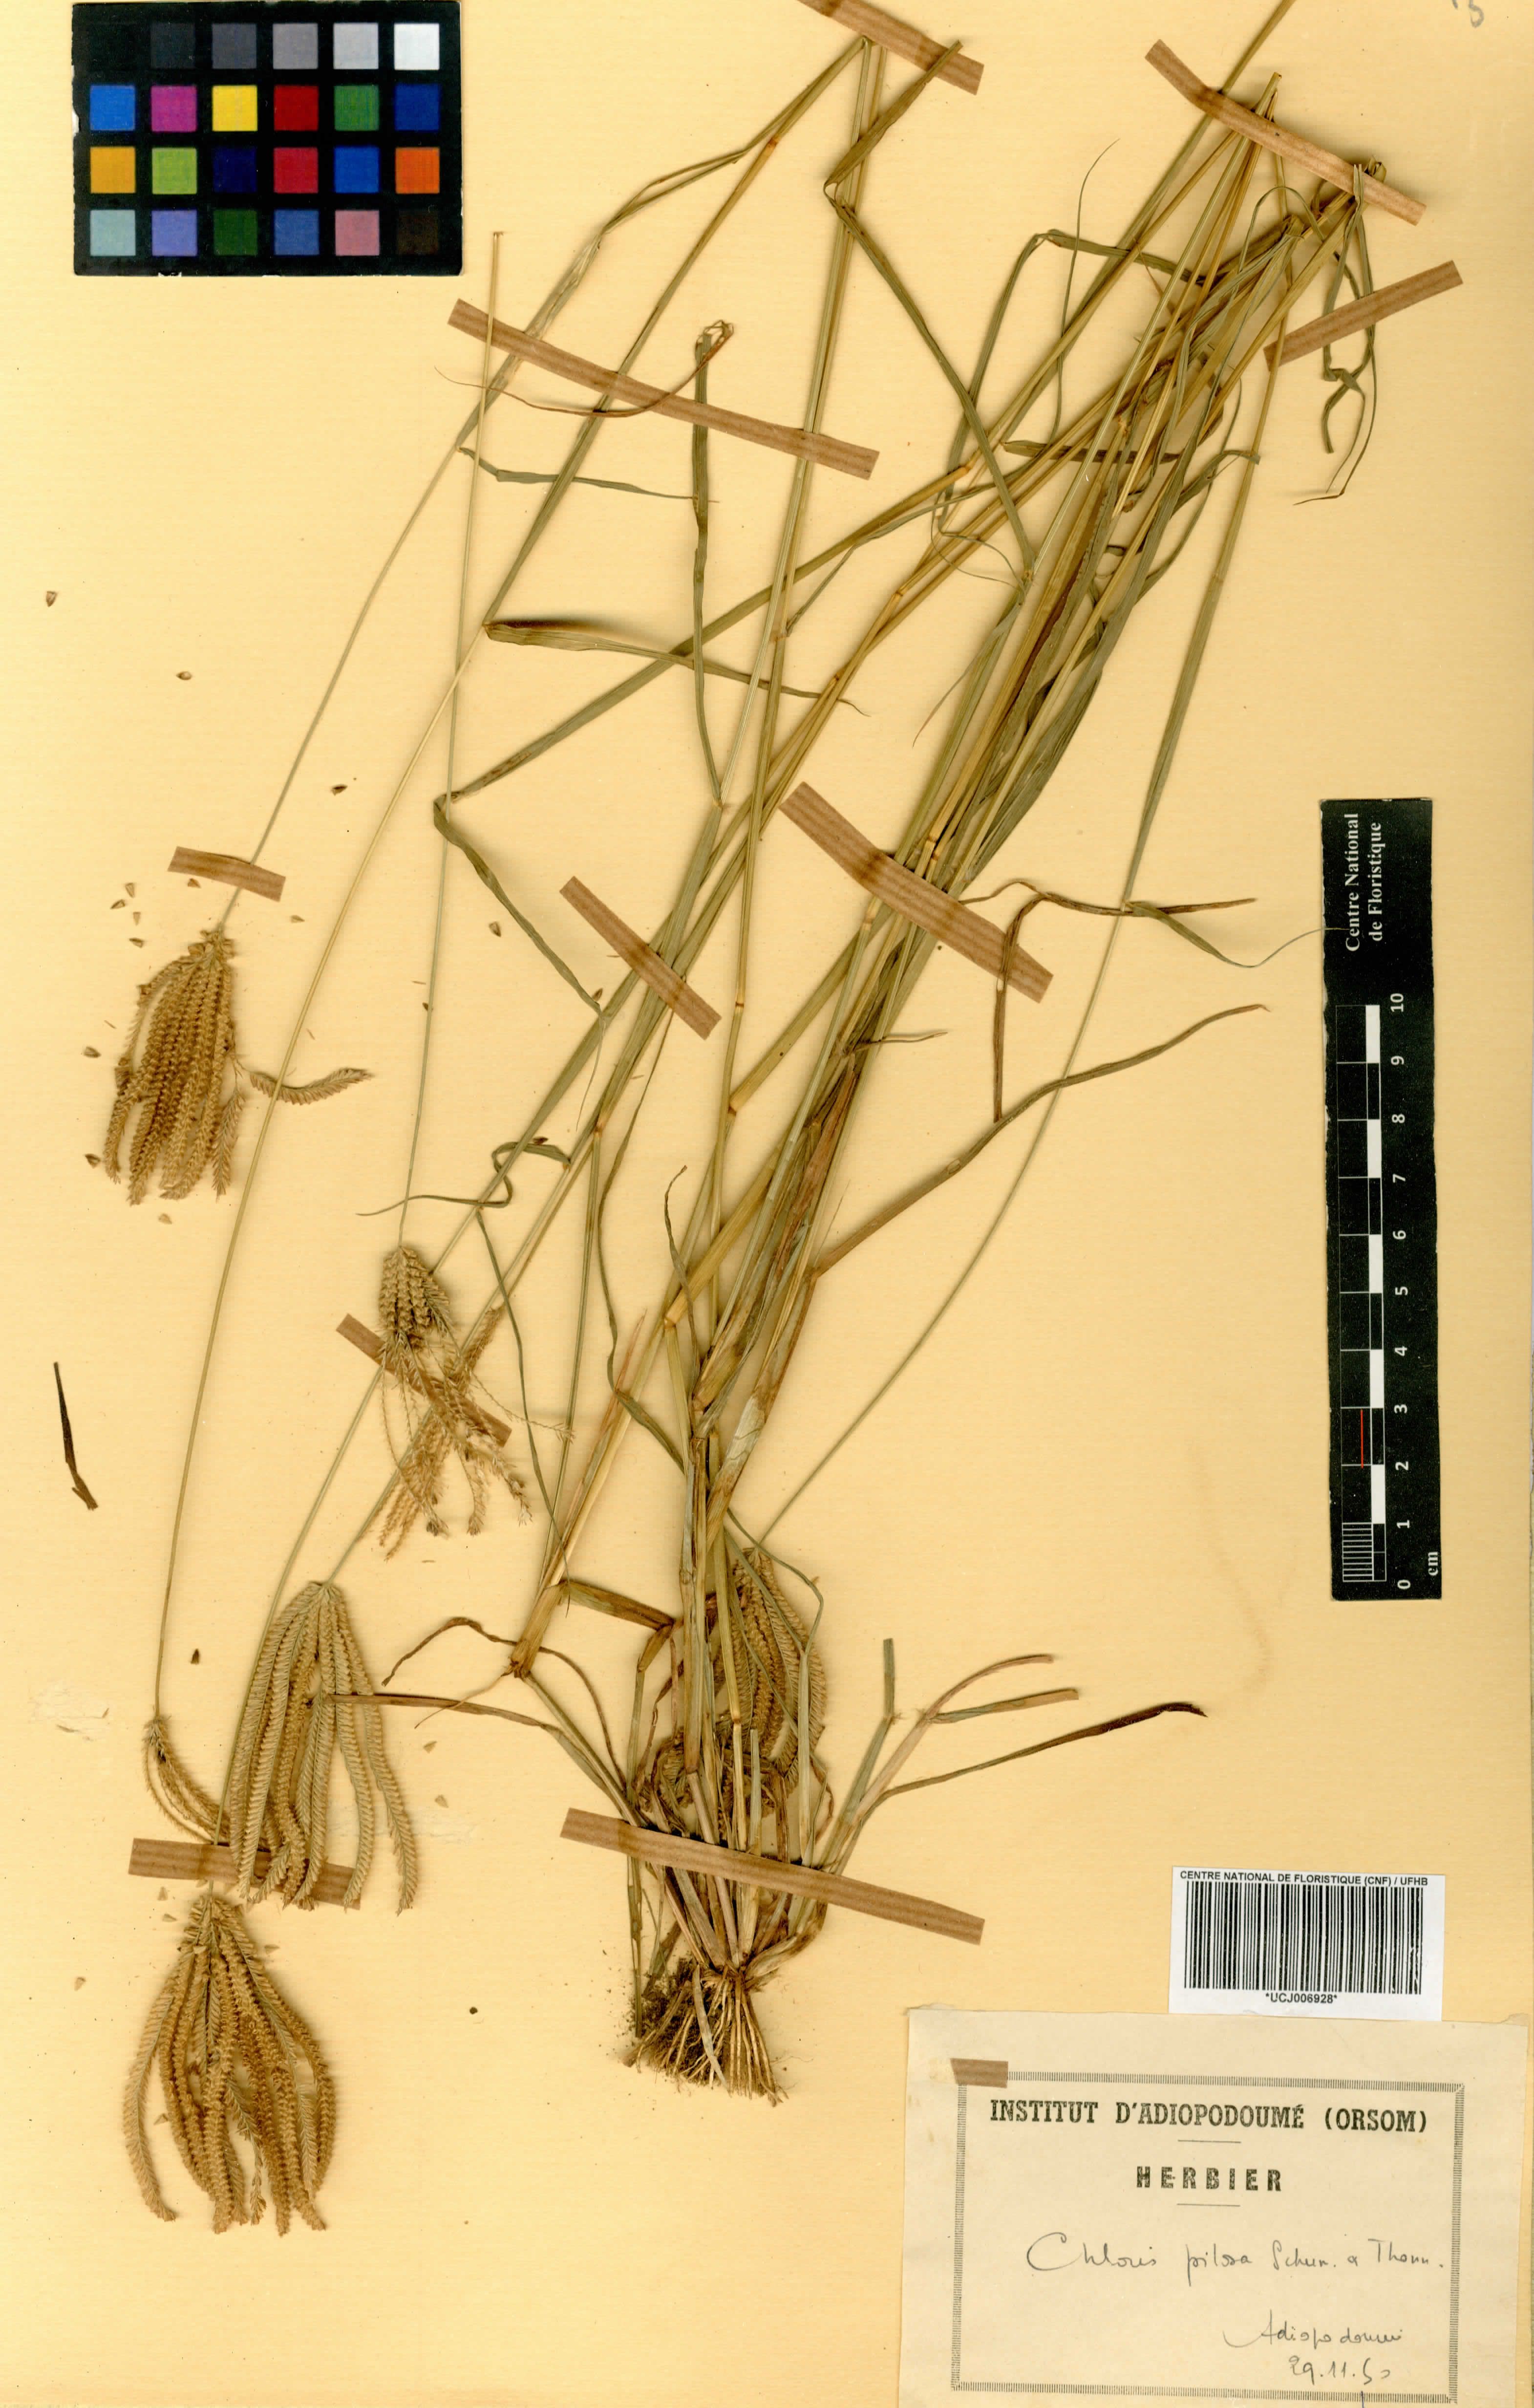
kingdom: Plantae
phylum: Tracheophyta
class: Liliopsida
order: Poales
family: Poaceae
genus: Chloris
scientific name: Chloris pilosa
